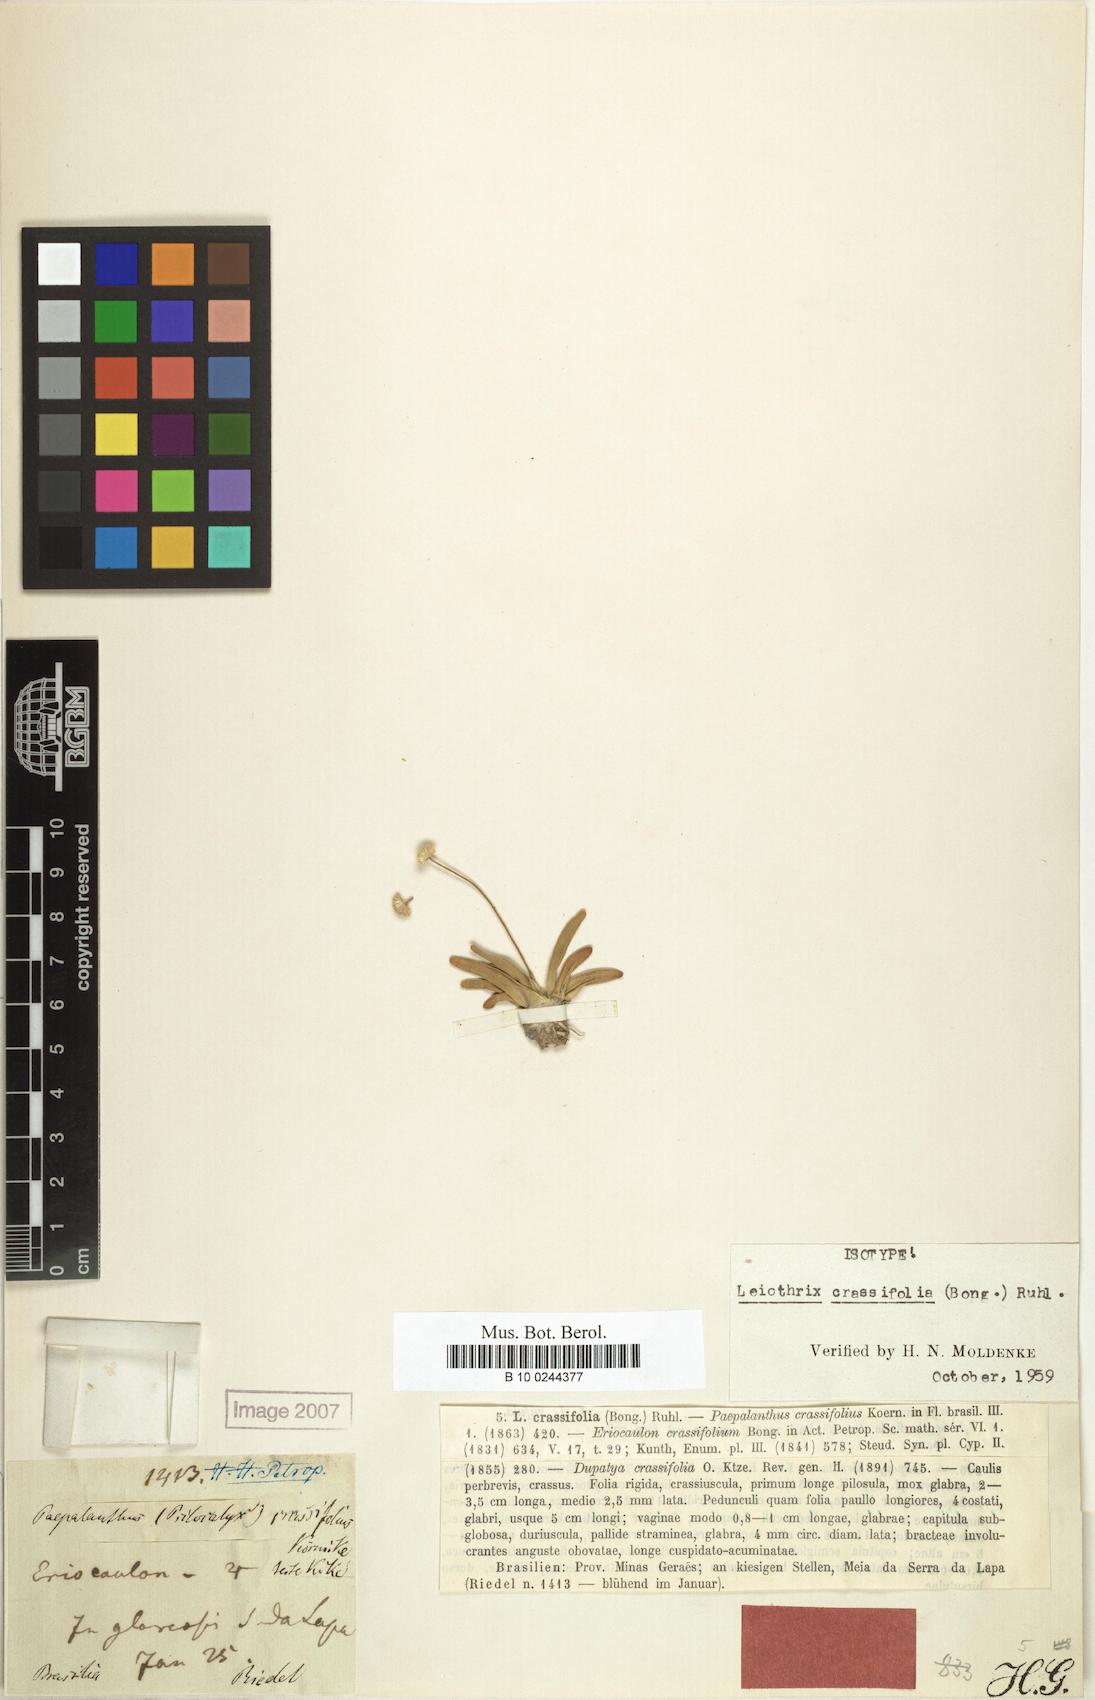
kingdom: Plantae
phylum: Tracheophyta
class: Liliopsida
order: Poales
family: Eriocaulaceae
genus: Leiothrix
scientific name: Leiothrix crassifolia
